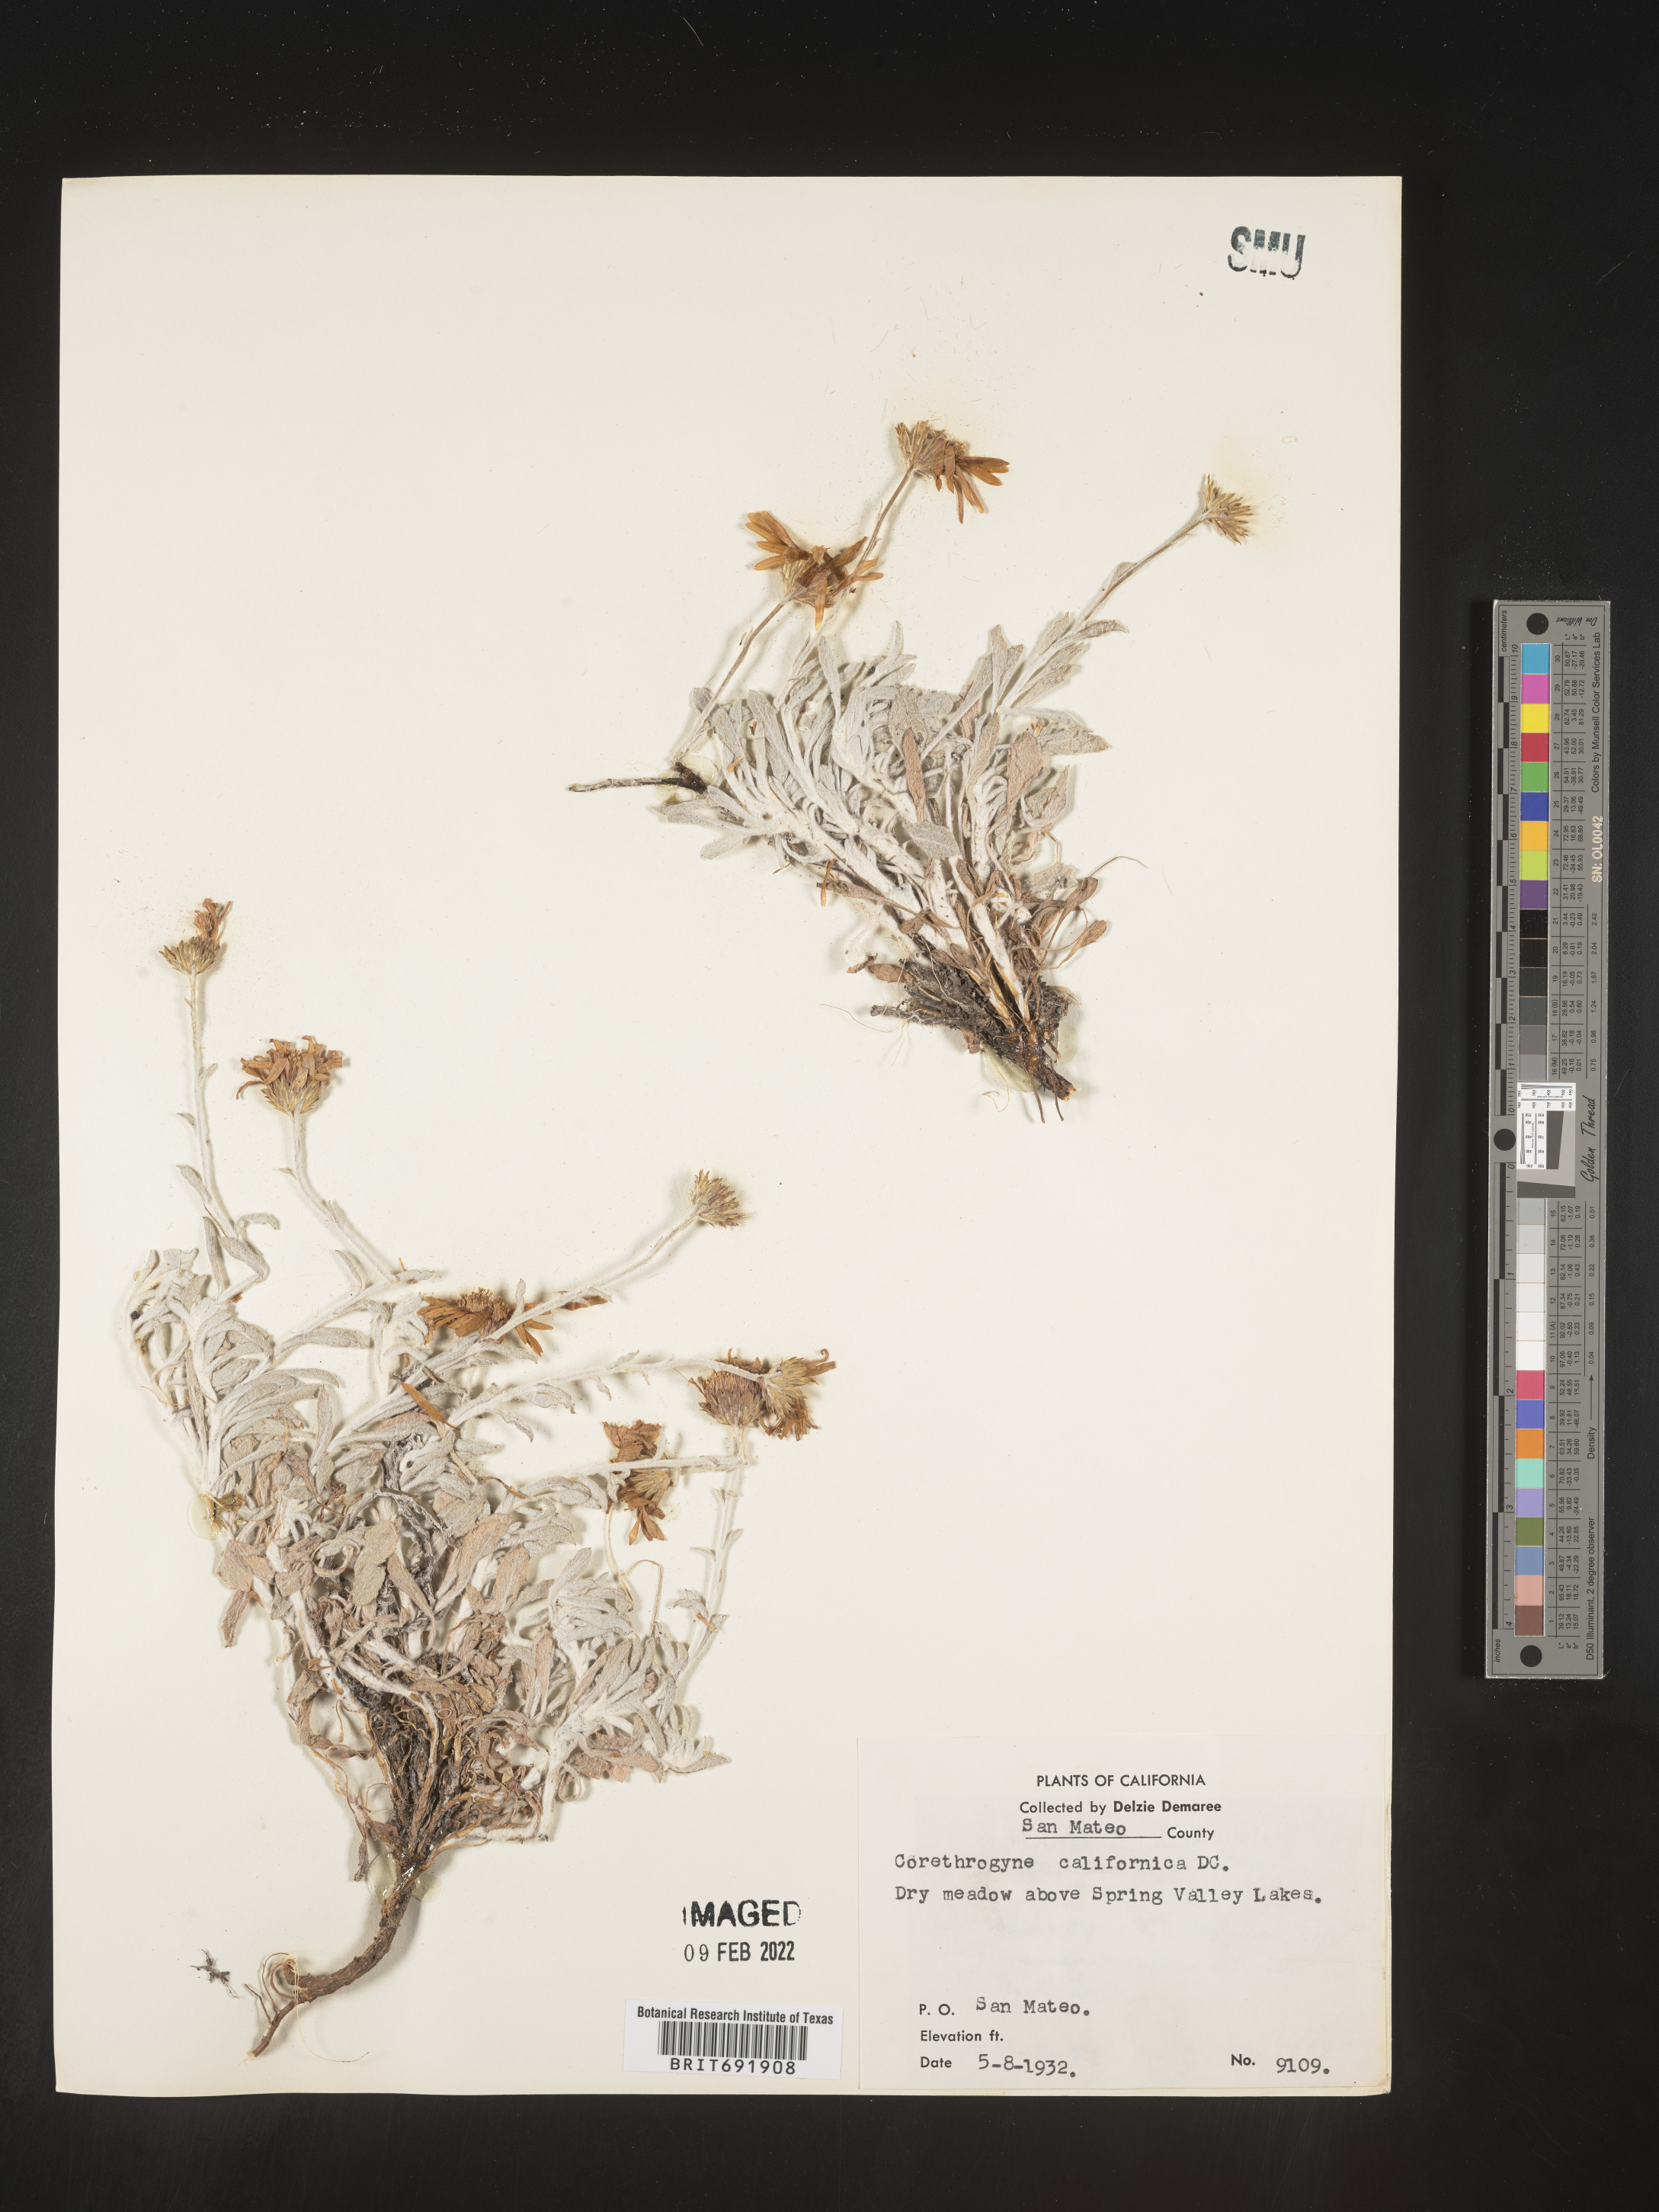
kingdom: Plantae
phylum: Tracheophyta
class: Magnoliopsida
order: Asterales
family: Asteraceae
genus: Corethrogyne
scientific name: Corethrogyne
